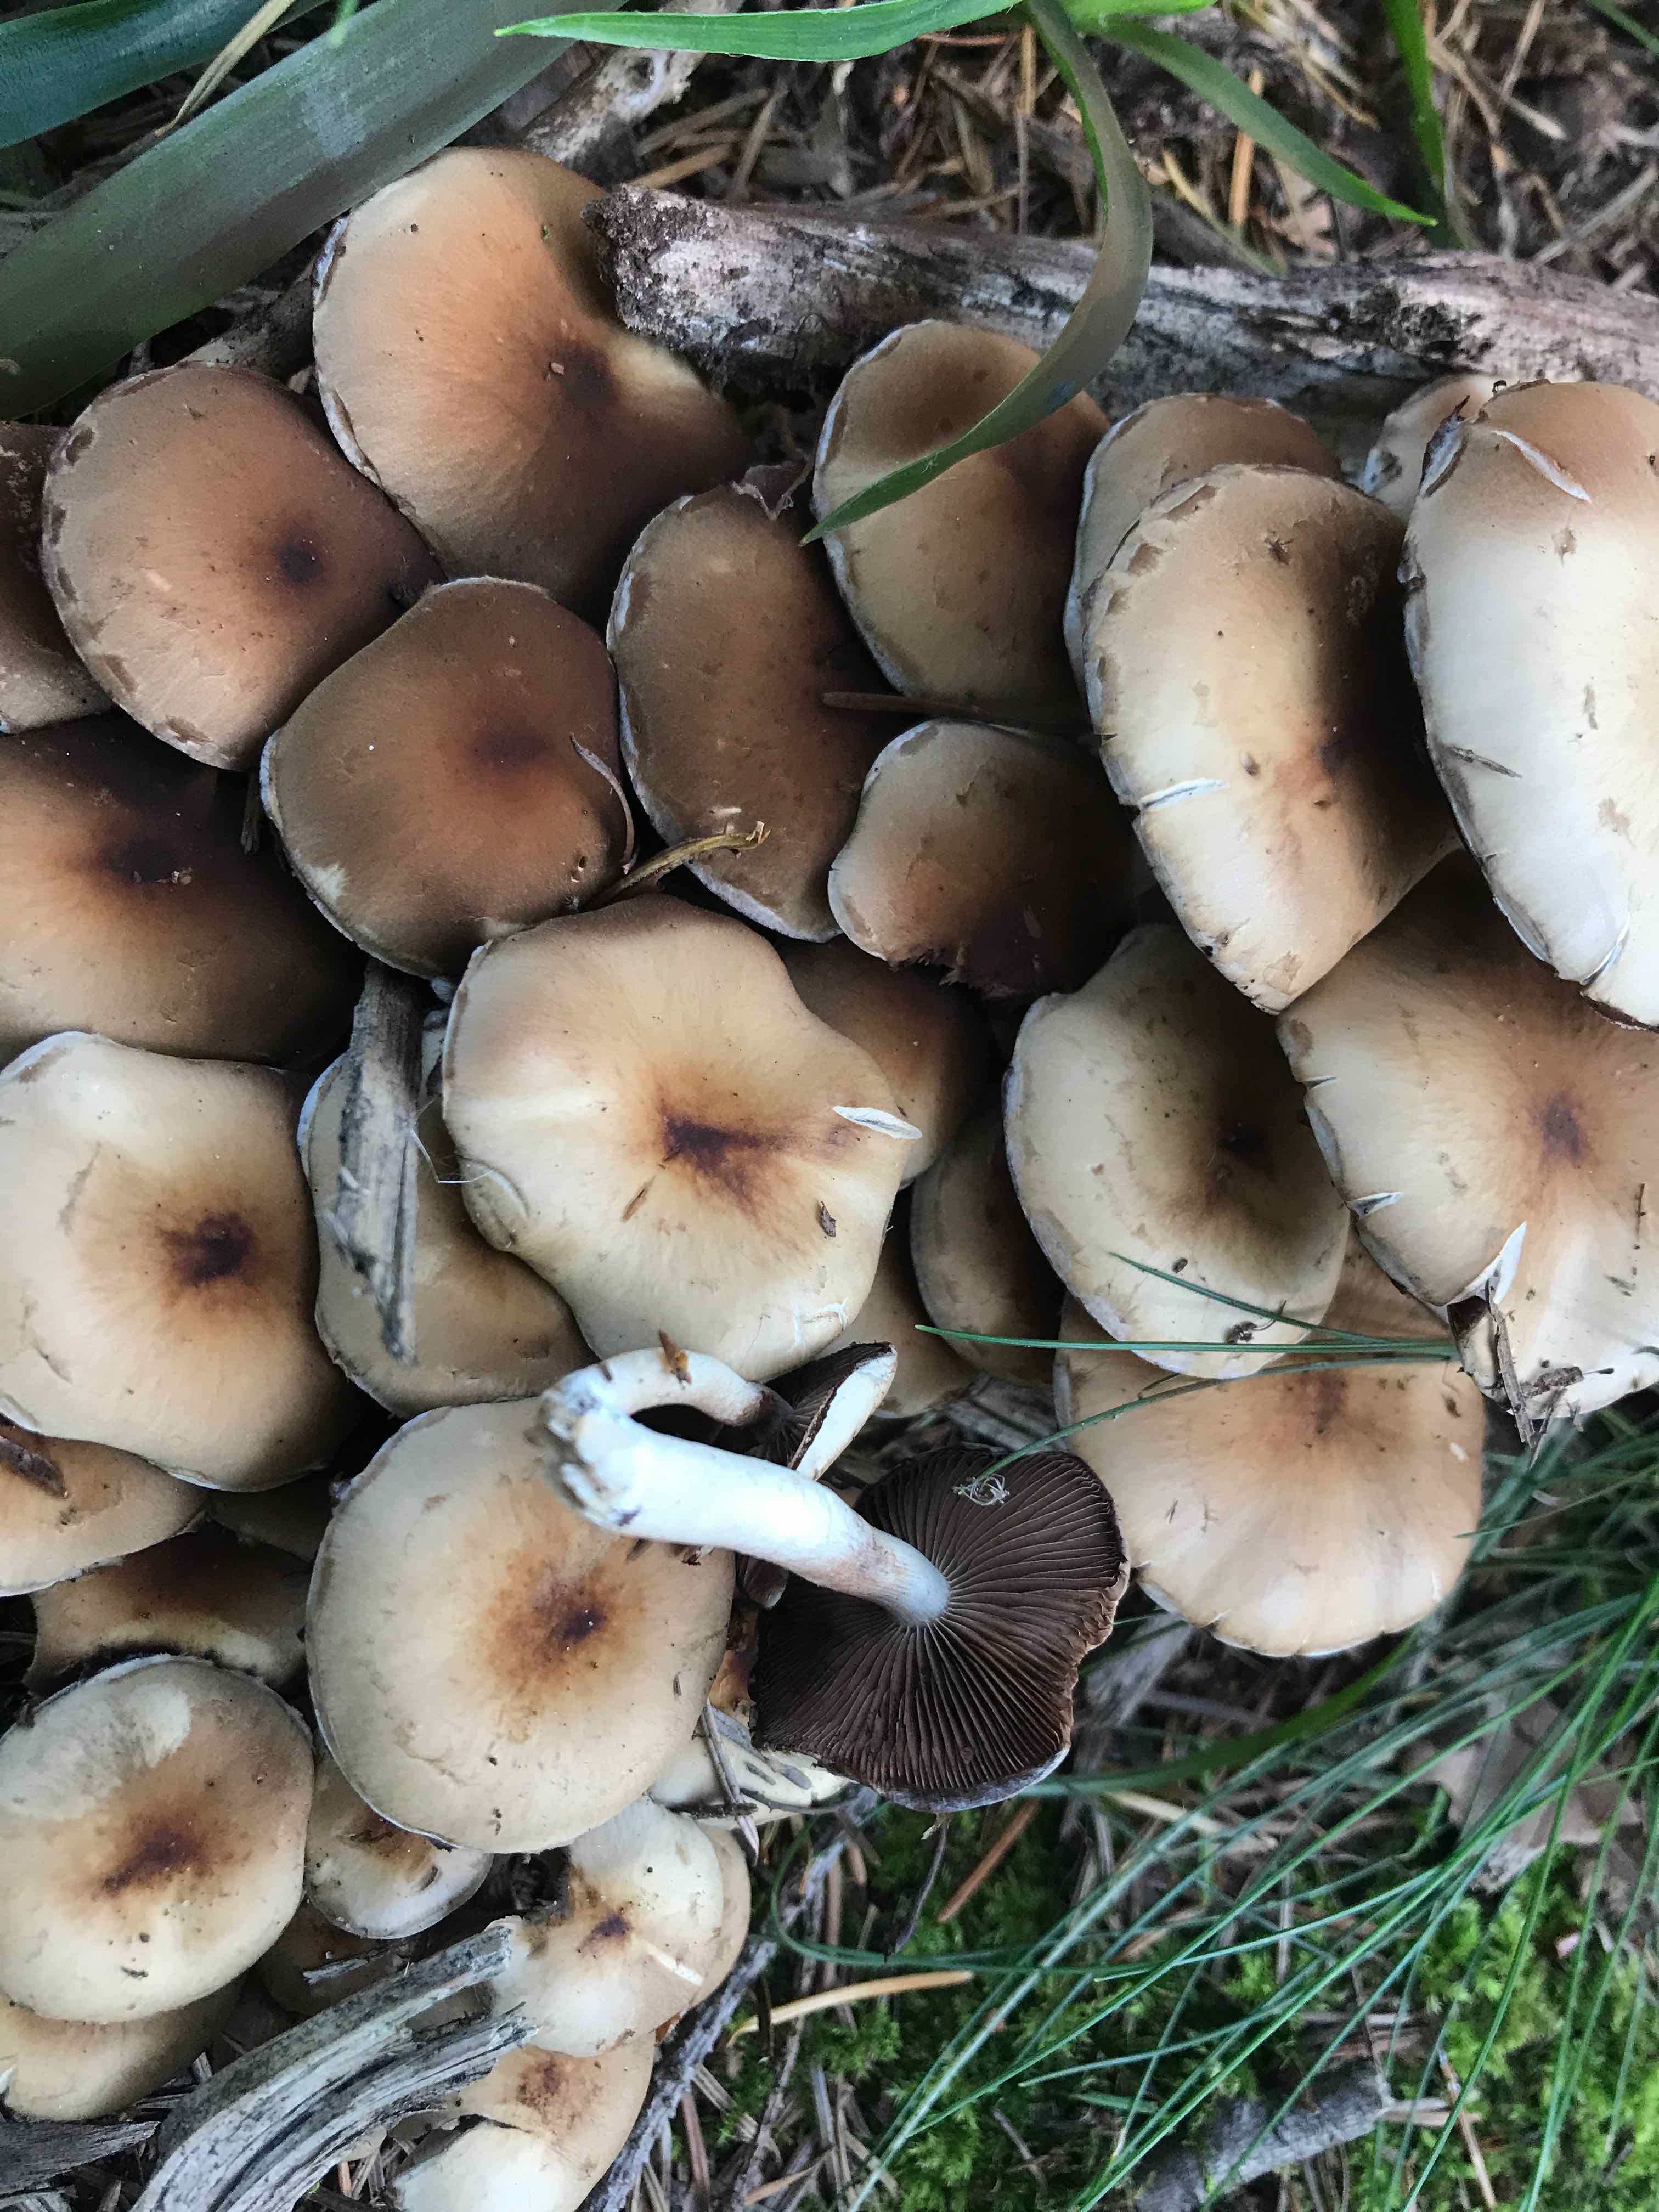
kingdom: Fungi
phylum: Basidiomycota
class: Agaricomycetes
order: Agaricales
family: Psathyrellaceae
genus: Psathyrella
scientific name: Psathyrella piluliformis
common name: lysstokket mørkhat
